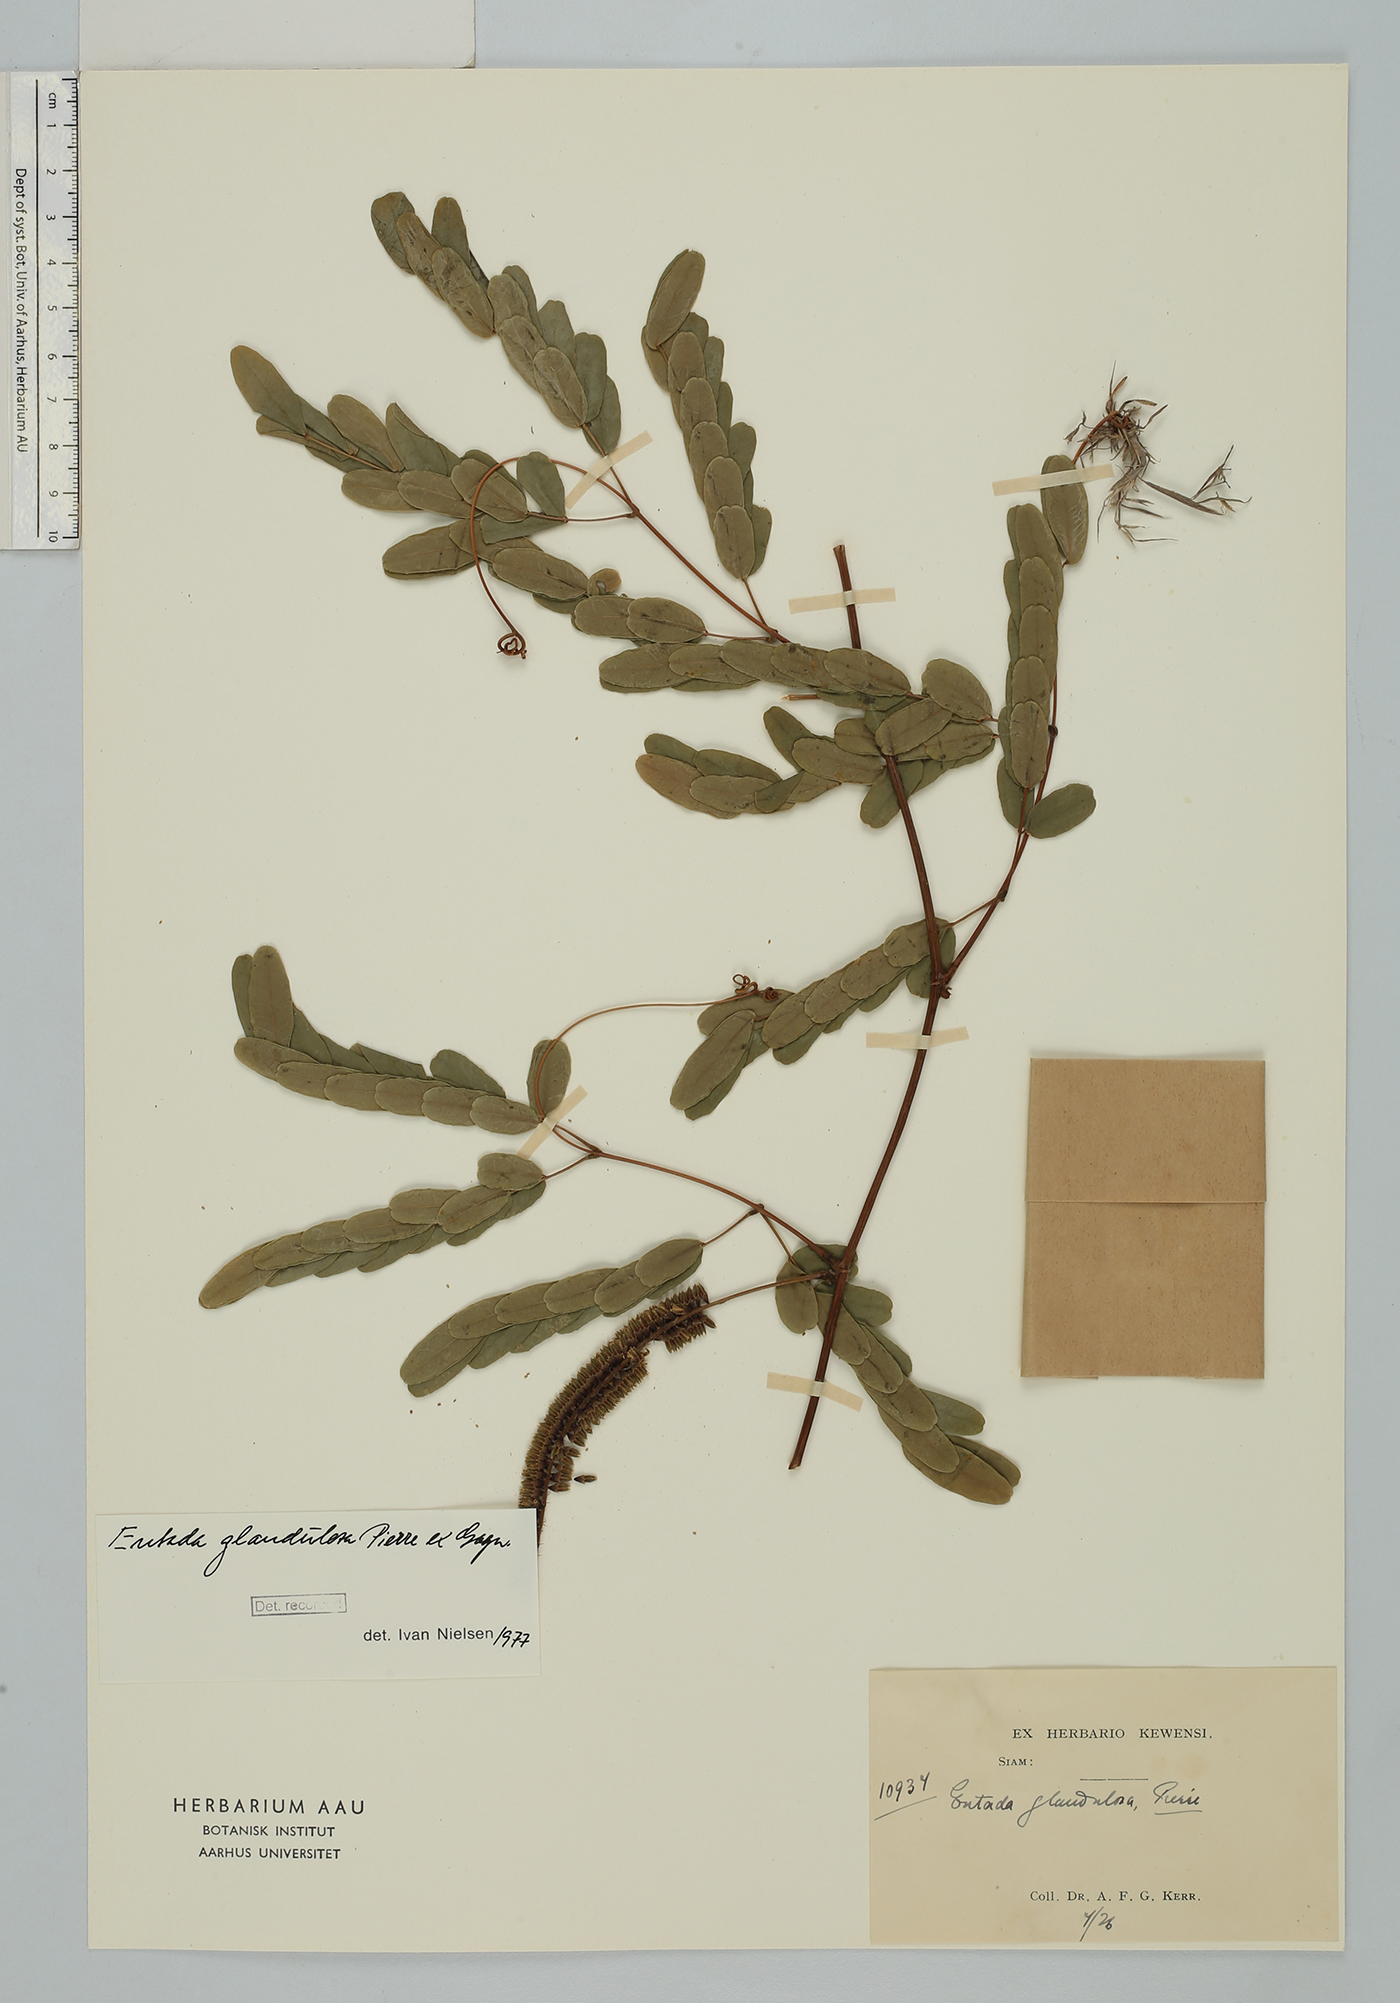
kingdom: Plantae
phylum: Tracheophyta
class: Magnoliopsida
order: Fabales
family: Fabaceae
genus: Entada
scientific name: Entada glandulosa
